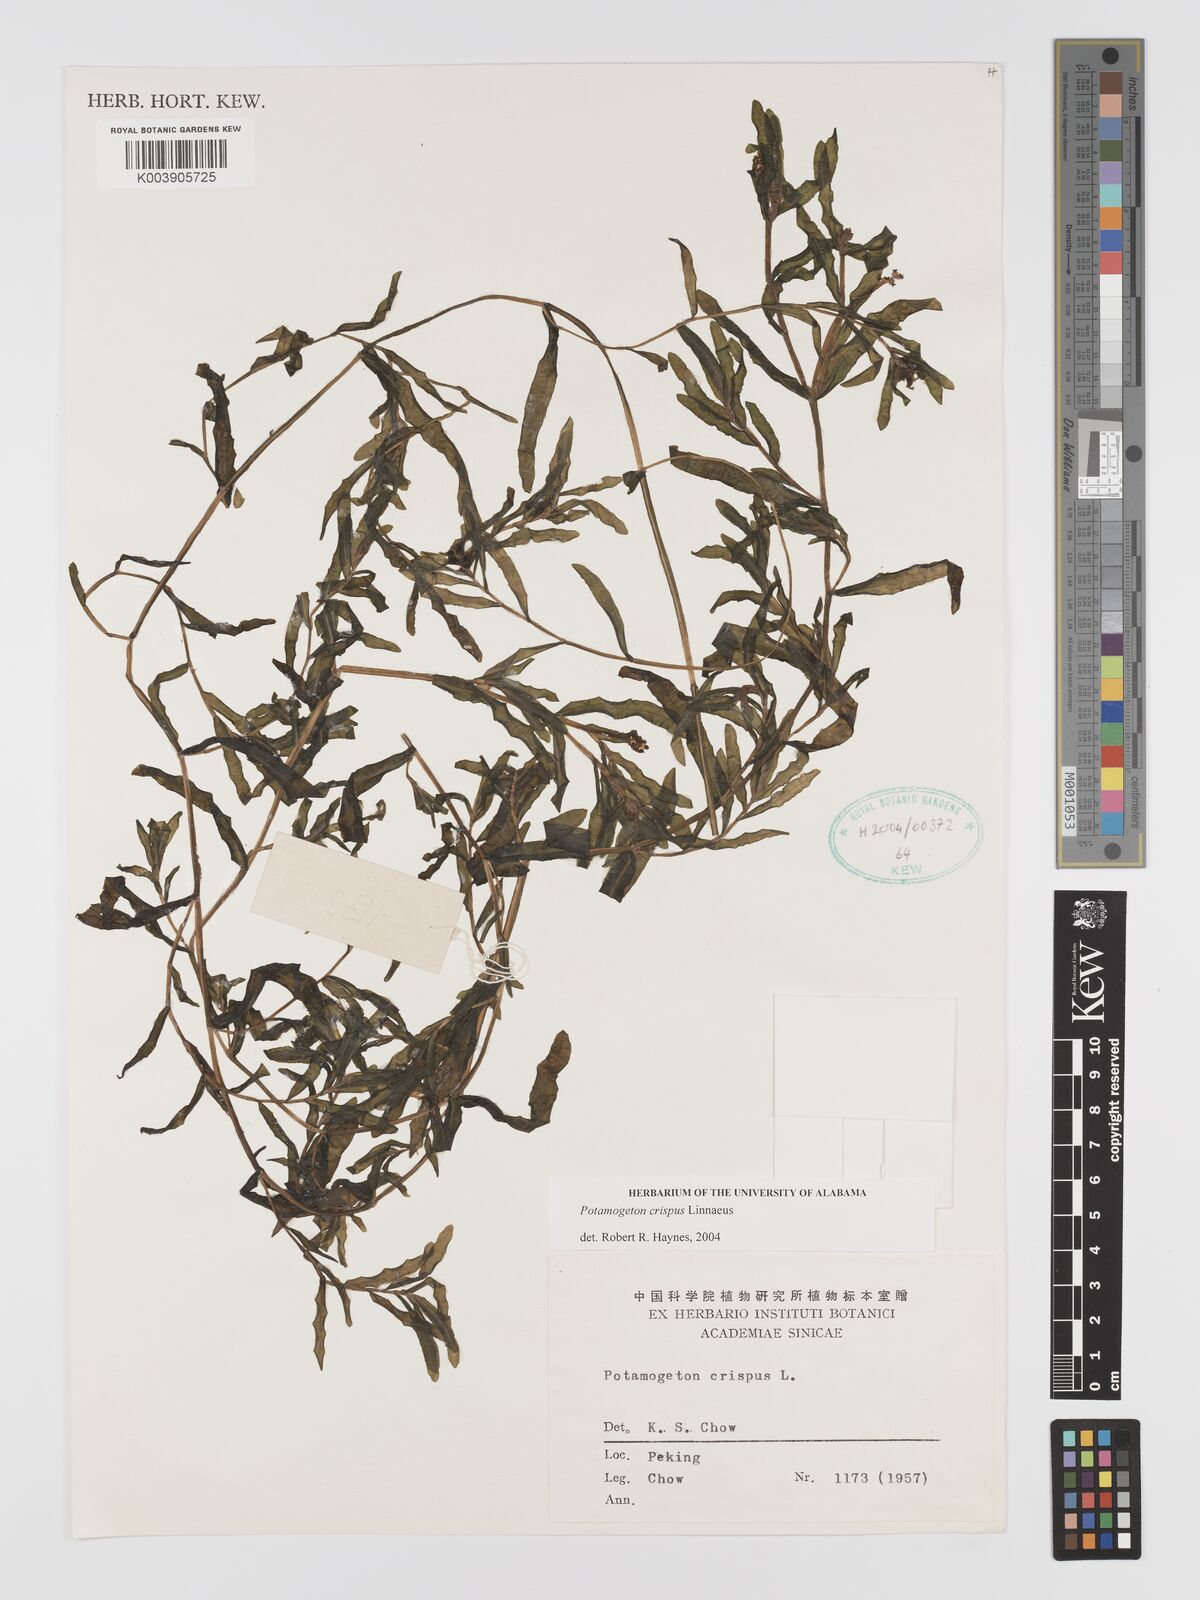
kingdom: Plantae
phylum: Tracheophyta
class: Liliopsida
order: Alismatales
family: Potamogetonaceae
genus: Potamogeton
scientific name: Potamogeton crispus
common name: Curled pondweed
